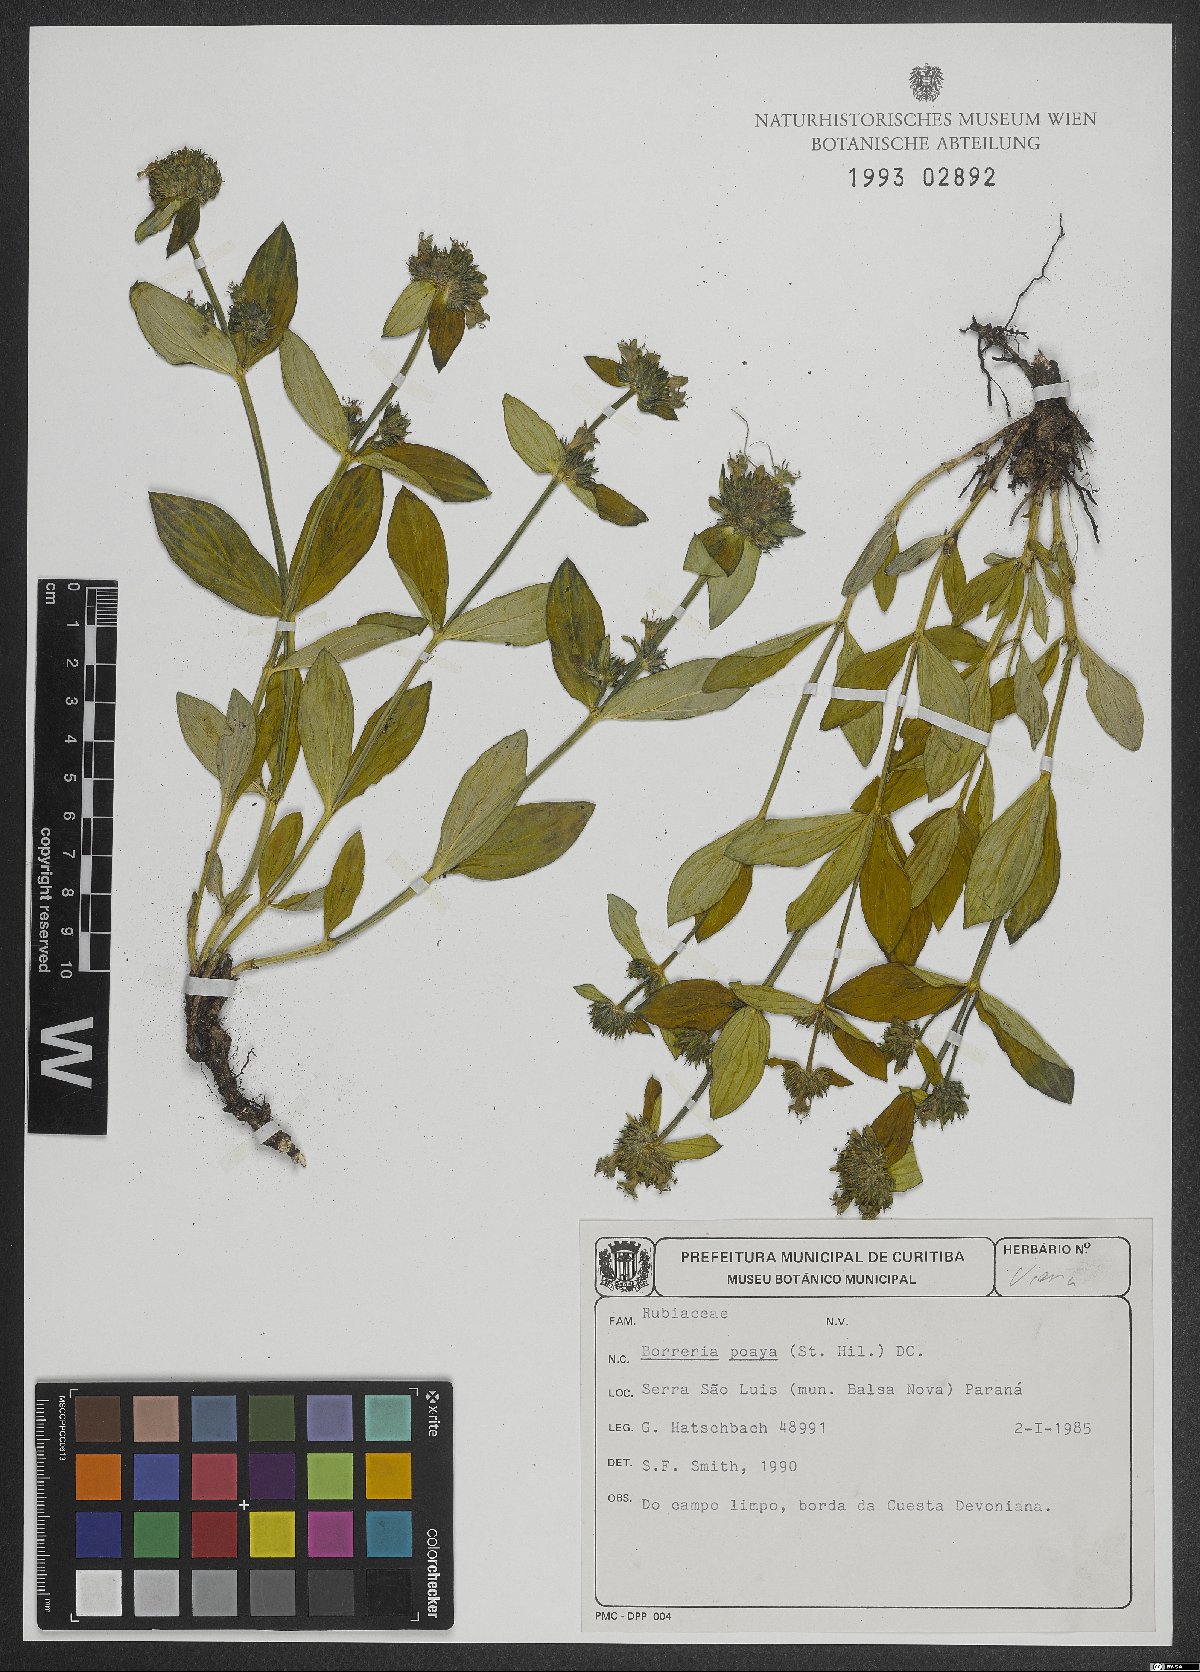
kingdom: Plantae
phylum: Tracheophyta
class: Magnoliopsida
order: Gentianales
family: Rubiaceae
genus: Spermacoce
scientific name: Spermacoce poaya
